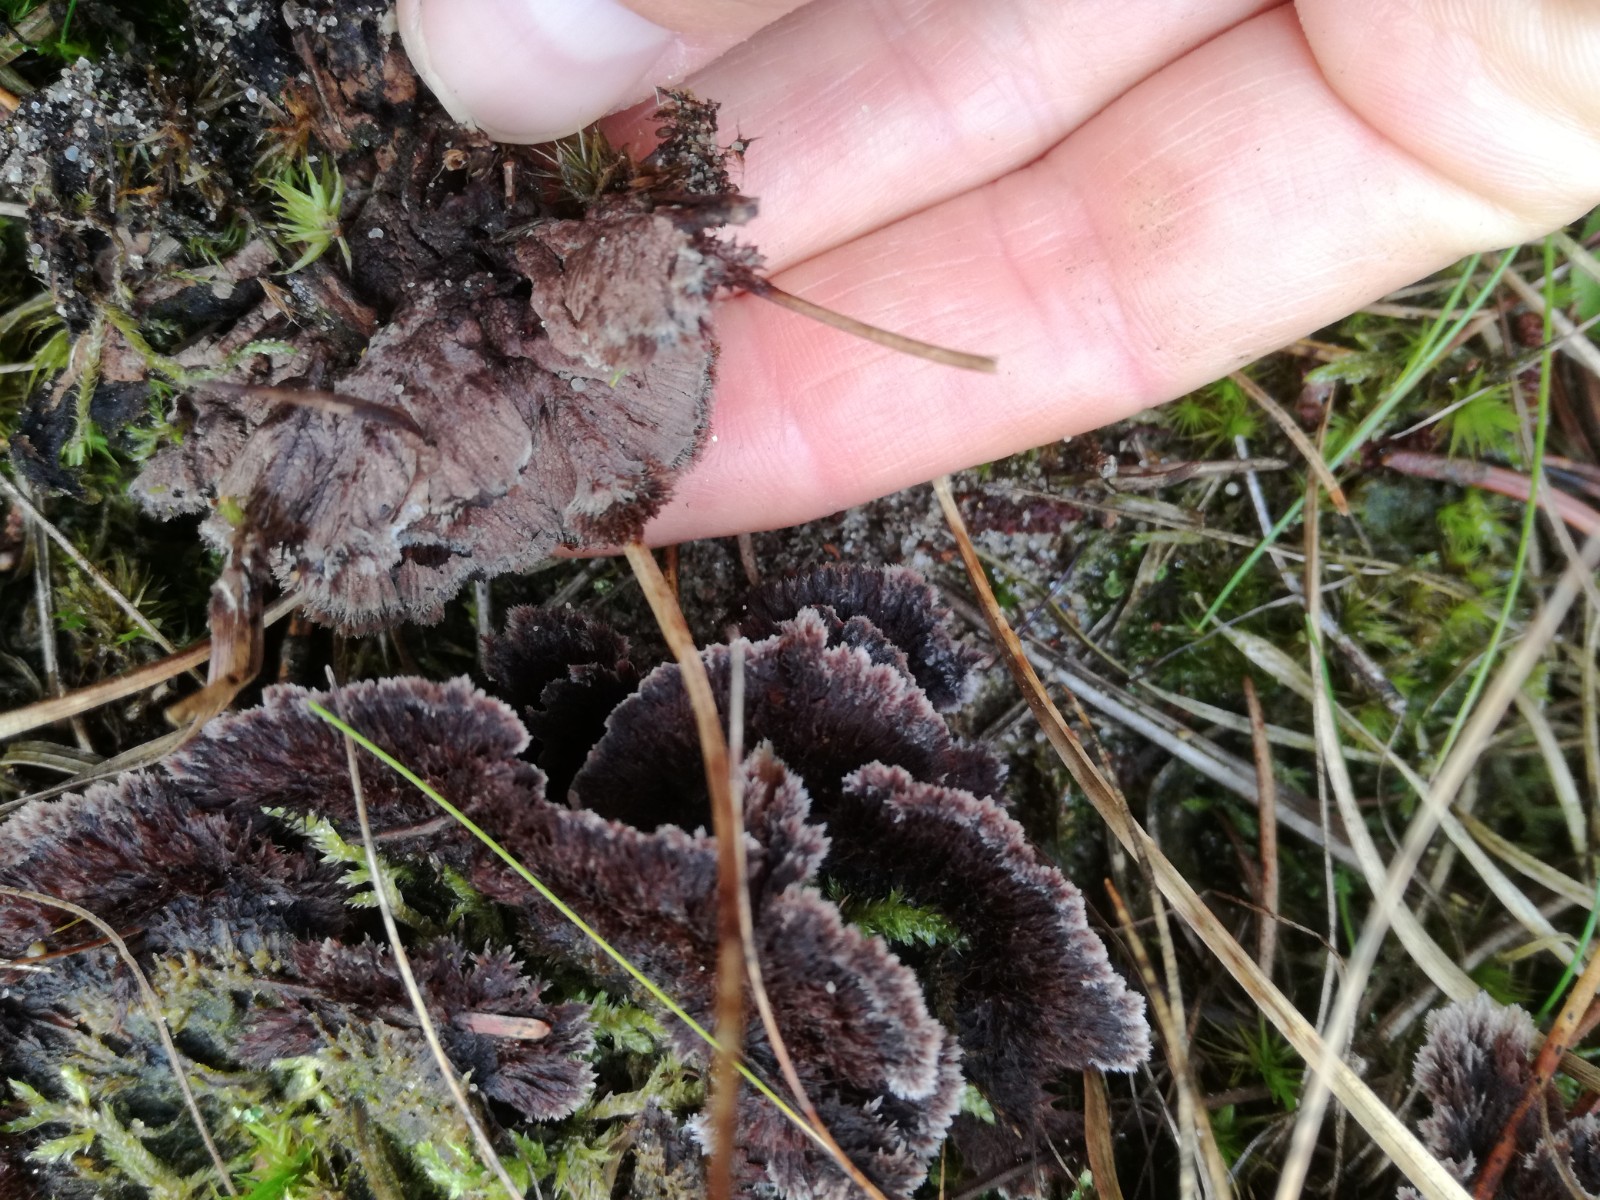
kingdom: Fungi
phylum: Basidiomycota
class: Agaricomycetes
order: Thelephorales
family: Thelephoraceae
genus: Thelephora
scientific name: Thelephora terrestris
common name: fliget frynsesvamp
